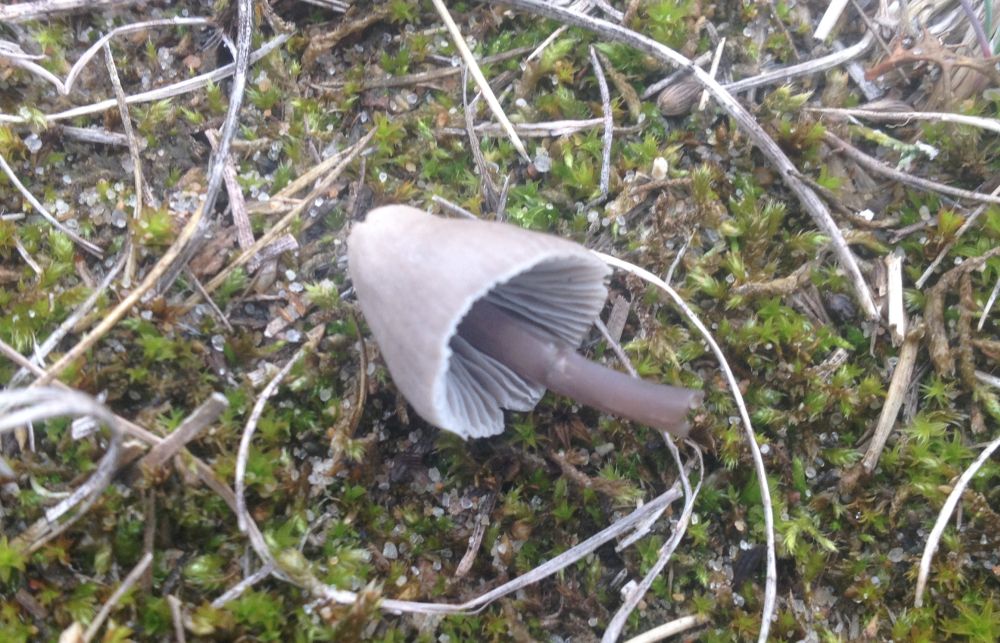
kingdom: Fungi
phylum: Basidiomycota
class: Agaricomycetes
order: Agaricales
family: Mycenaceae
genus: Mycena
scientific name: Mycena
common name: huesvamp
